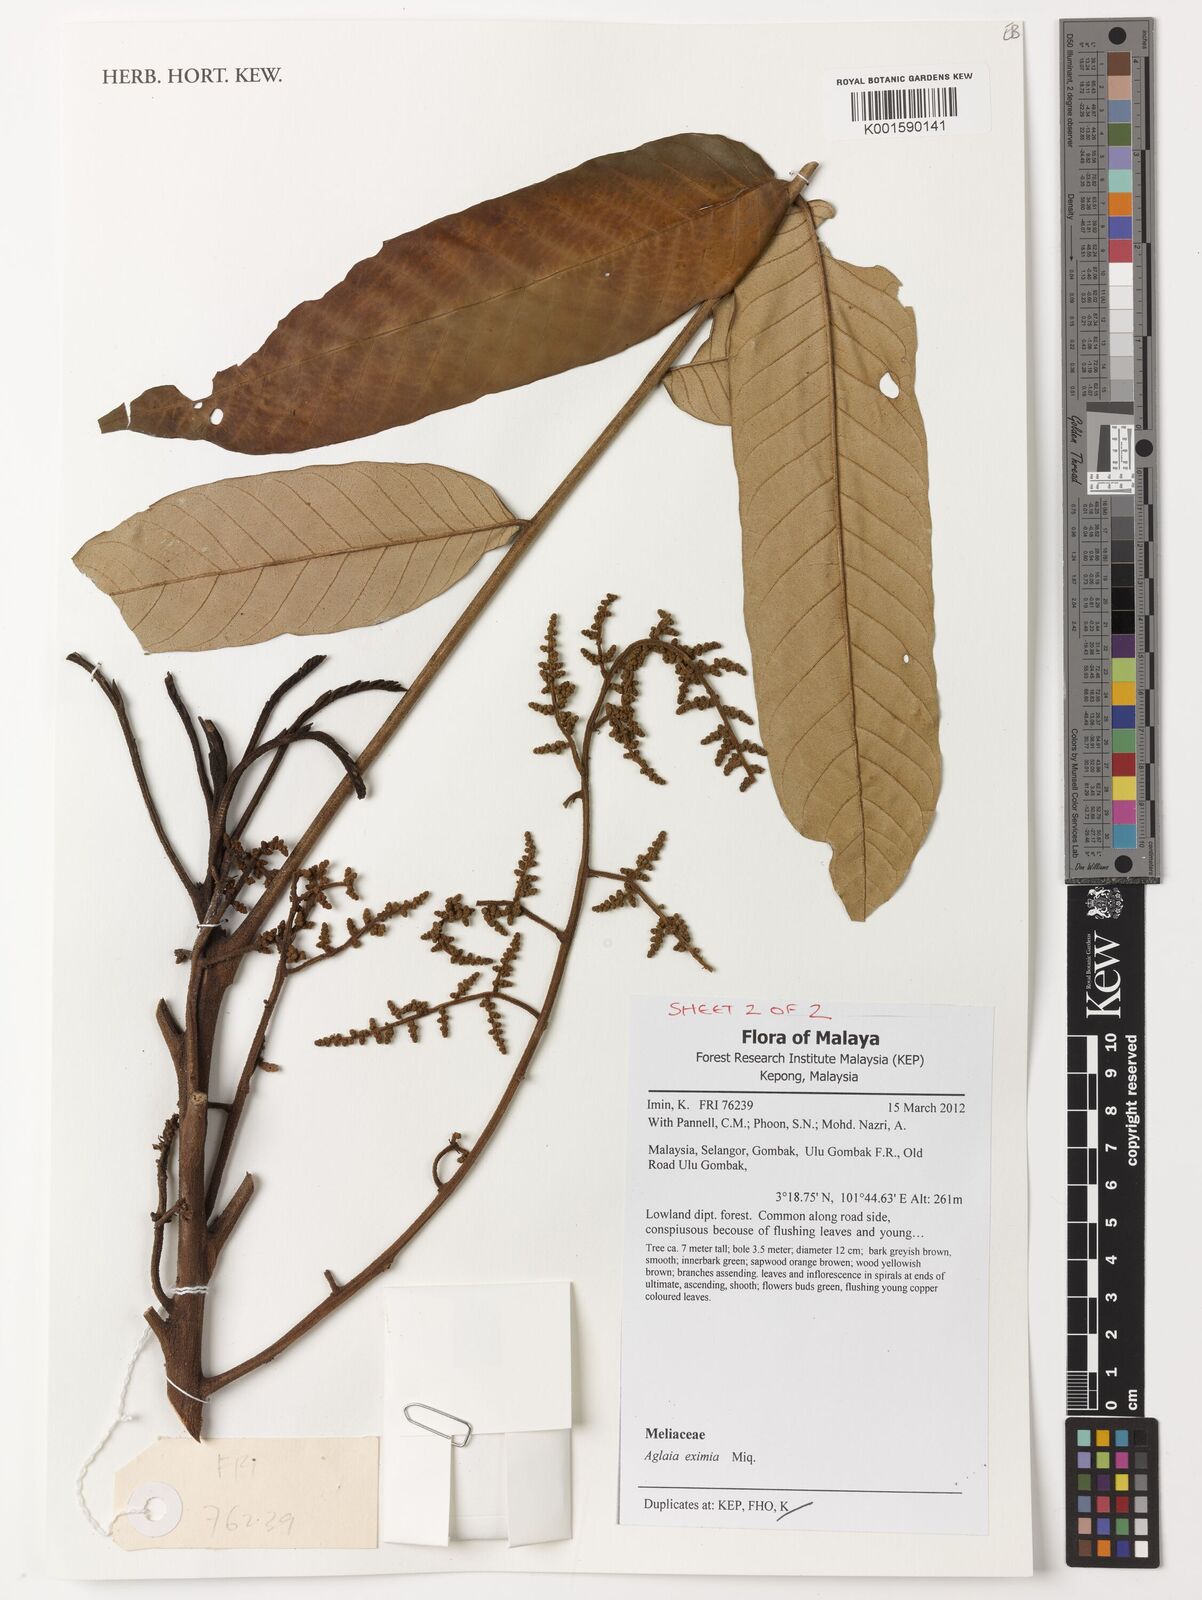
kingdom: Plantae
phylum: Tracheophyta
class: Magnoliopsida
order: Sapindales
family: Meliaceae
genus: Aglaia
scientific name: Aglaia eximia
